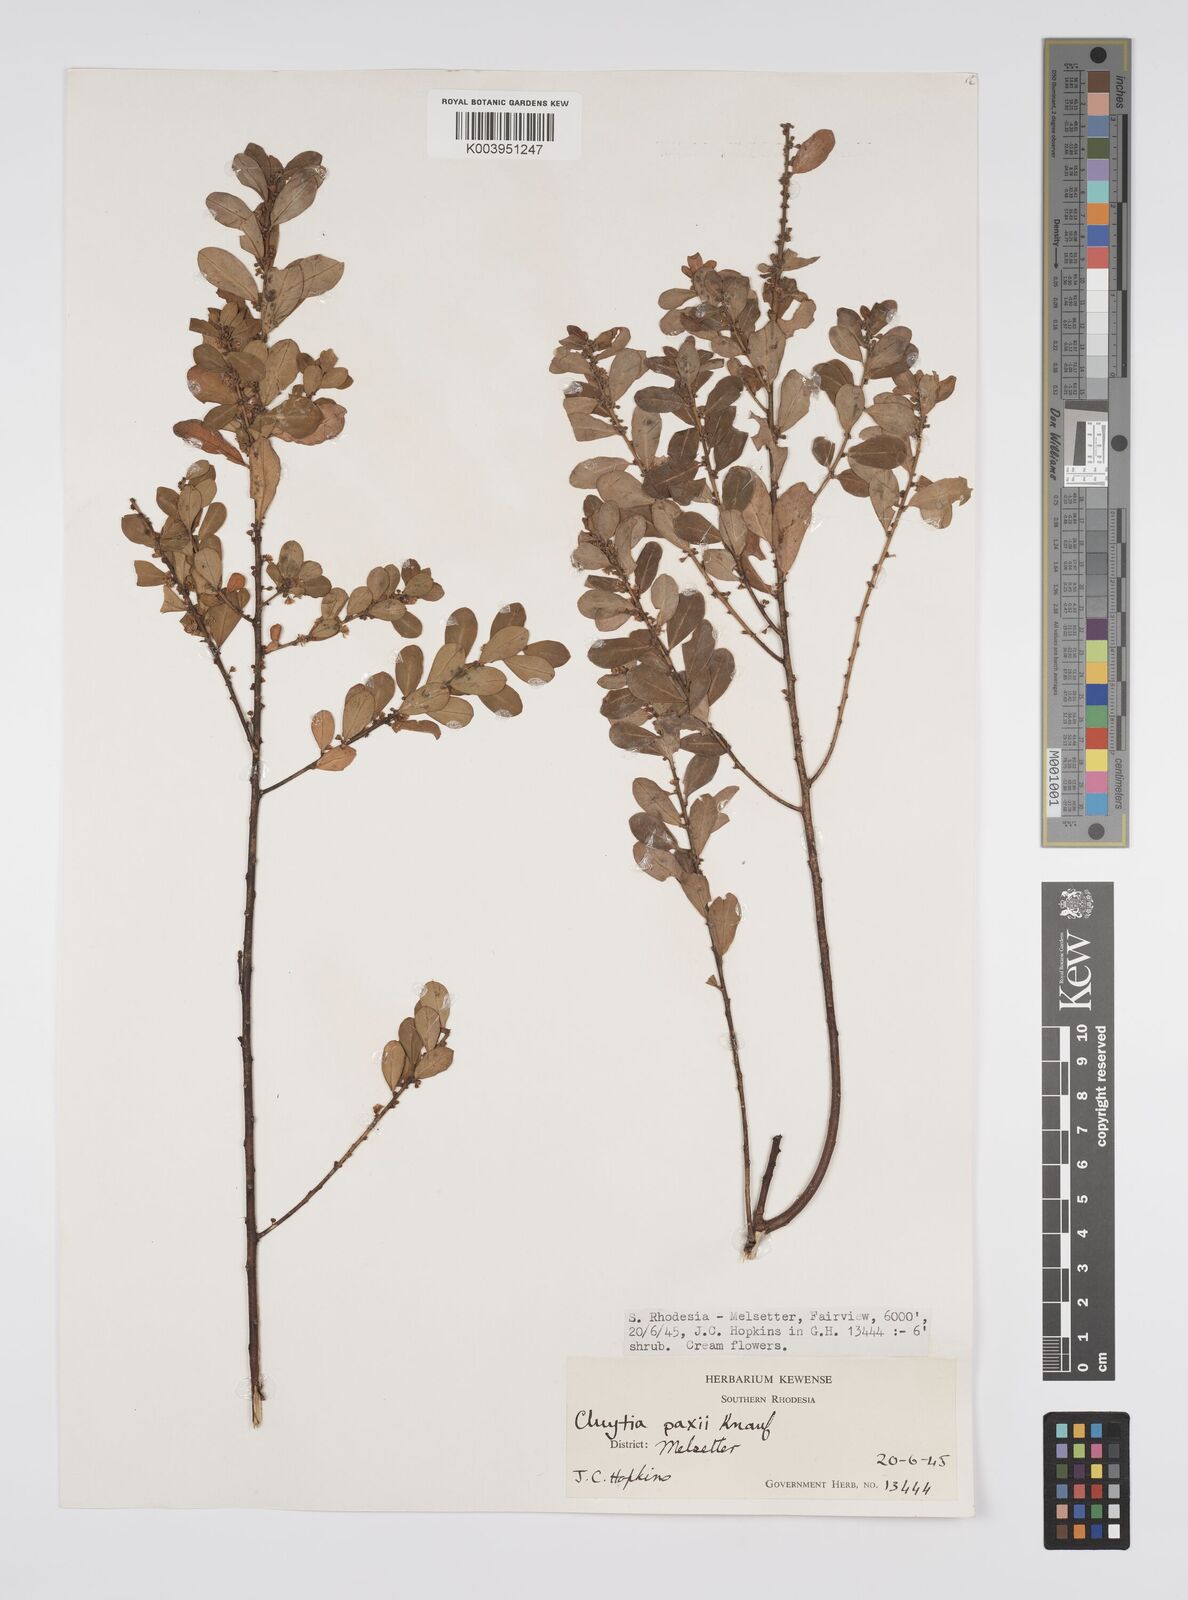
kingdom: Plantae
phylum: Tracheophyta
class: Magnoliopsida
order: Malpighiales
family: Peraceae
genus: Clutia
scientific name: Clutia paxii
